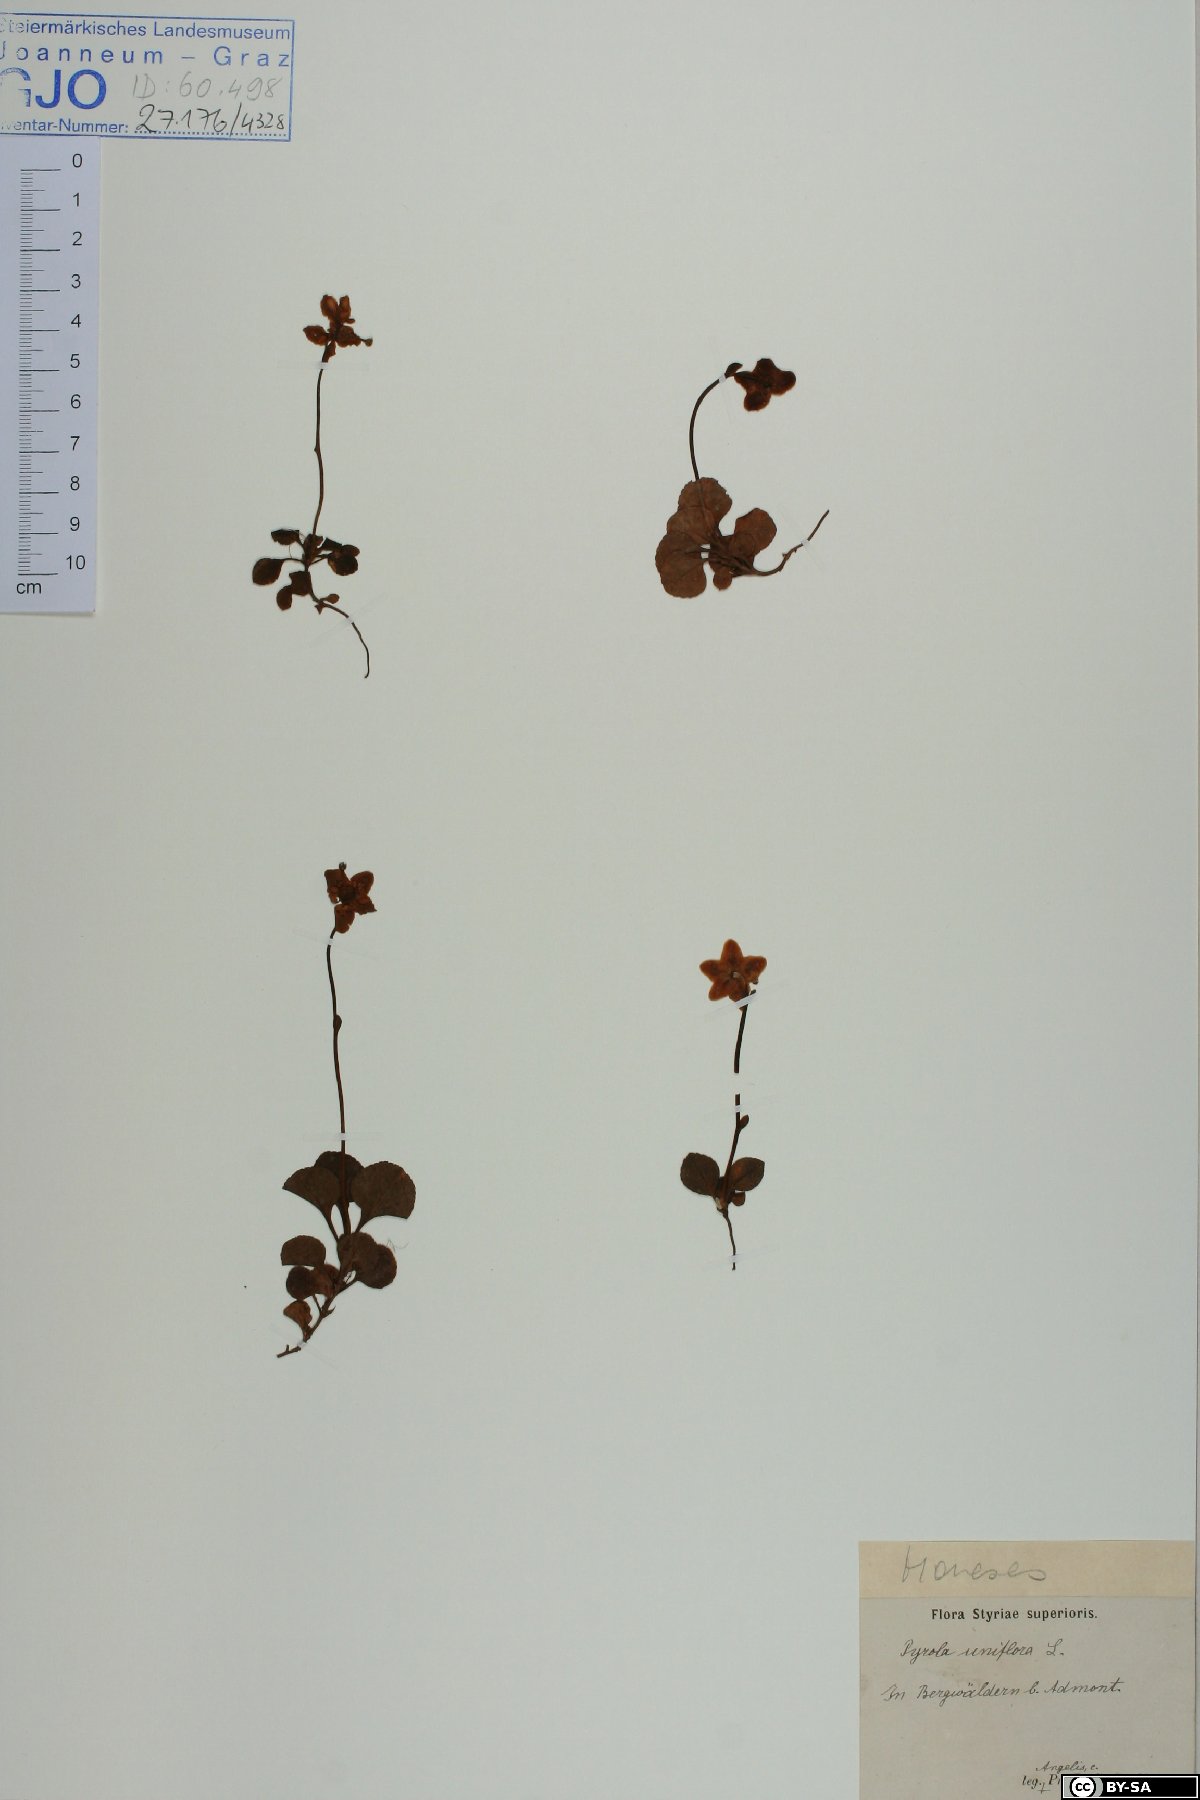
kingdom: Plantae
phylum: Tracheophyta
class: Magnoliopsida
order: Ericales
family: Ericaceae
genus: Moneses
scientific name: Moneses uniflora
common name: One-flowered wintergreen
